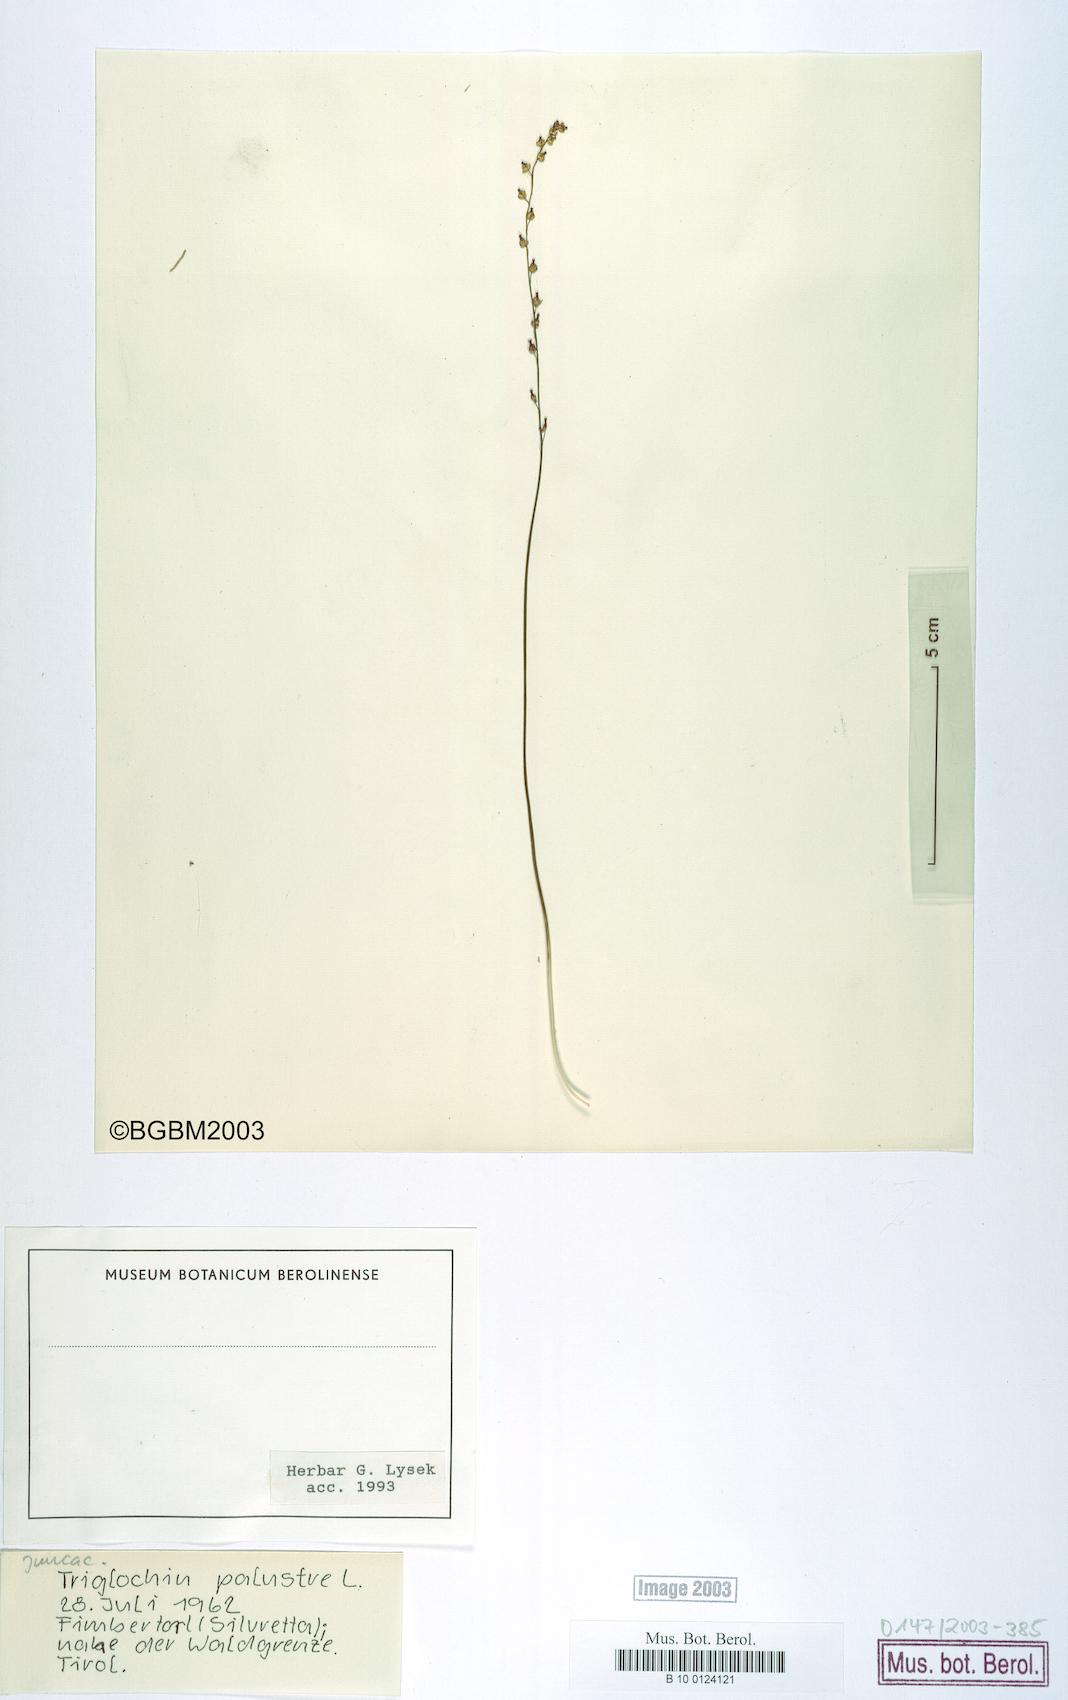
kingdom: Plantae
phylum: Tracheophyta
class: Liliopsida
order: Alismatales
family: Juncaginaceae
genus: Triglochin
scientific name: Triglochin palustris
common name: Marsh arrowgrass
